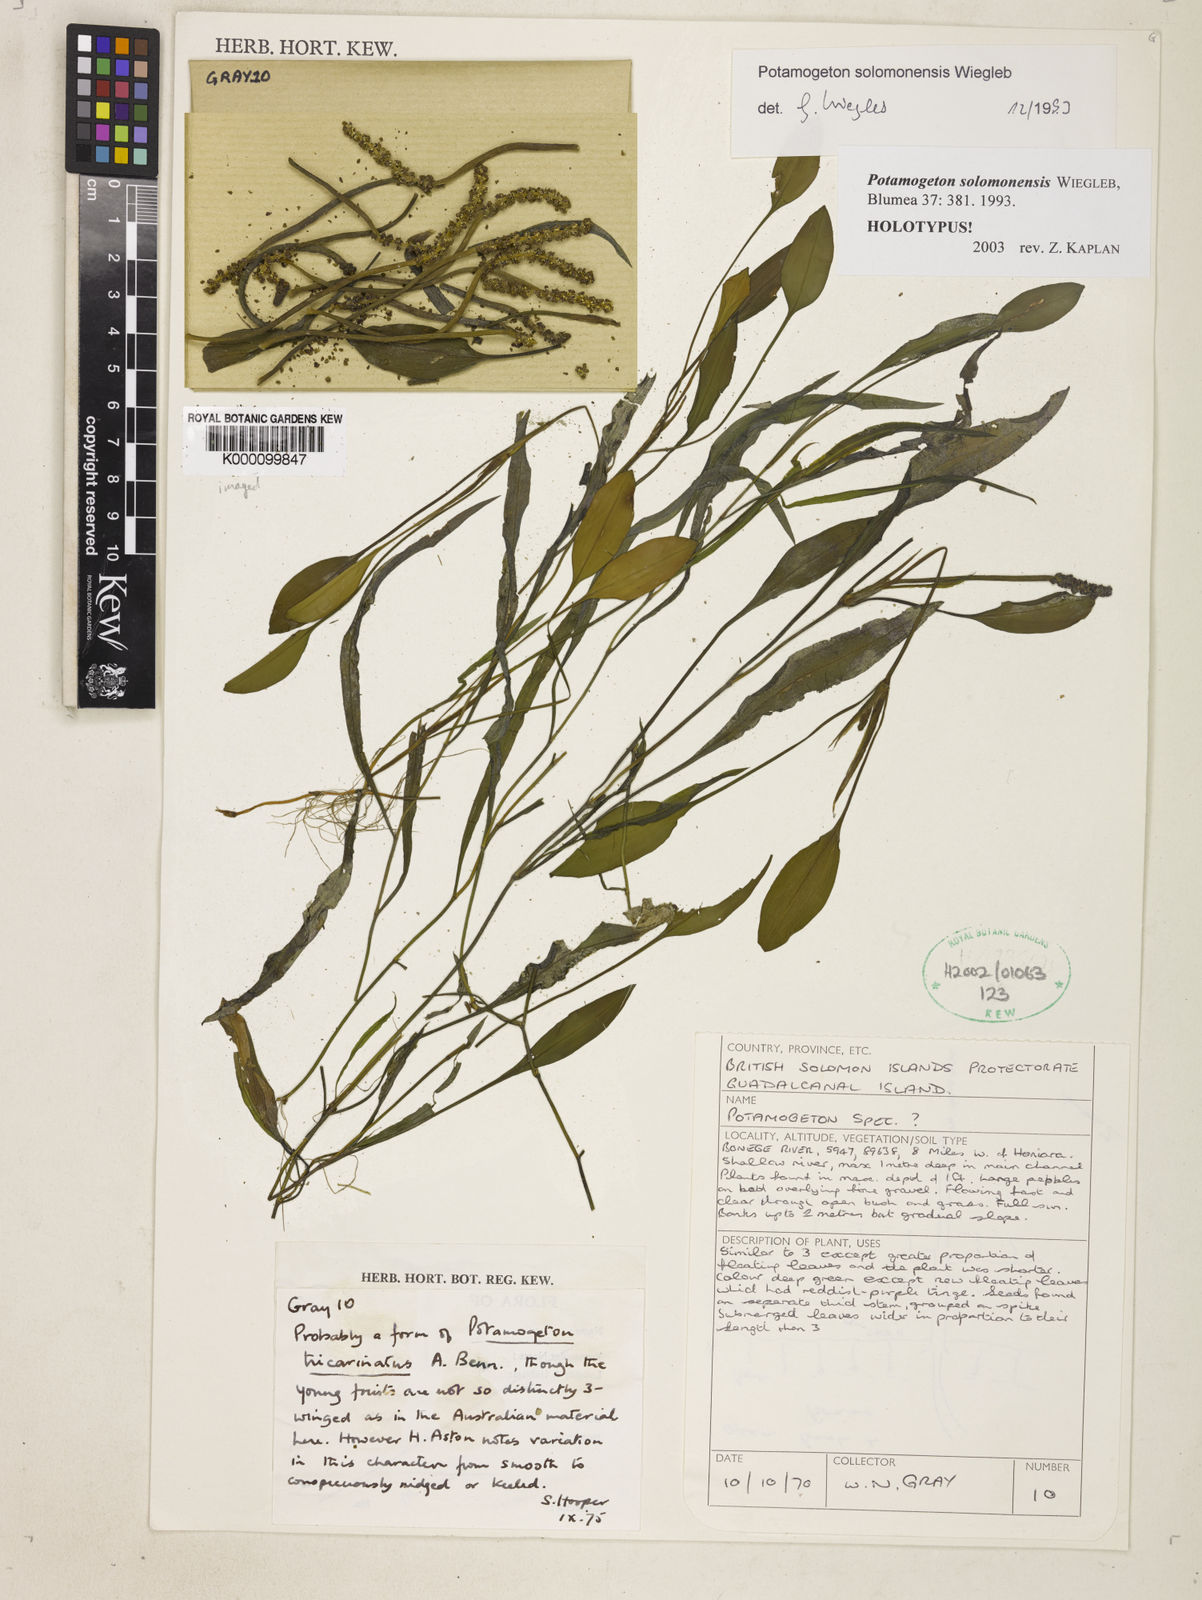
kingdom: Plantae
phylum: Tracheophyta
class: Liliopsida
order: Alismatales
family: Potamogetonaceae
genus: Potamogeton
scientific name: Potamogeton solomonensis
